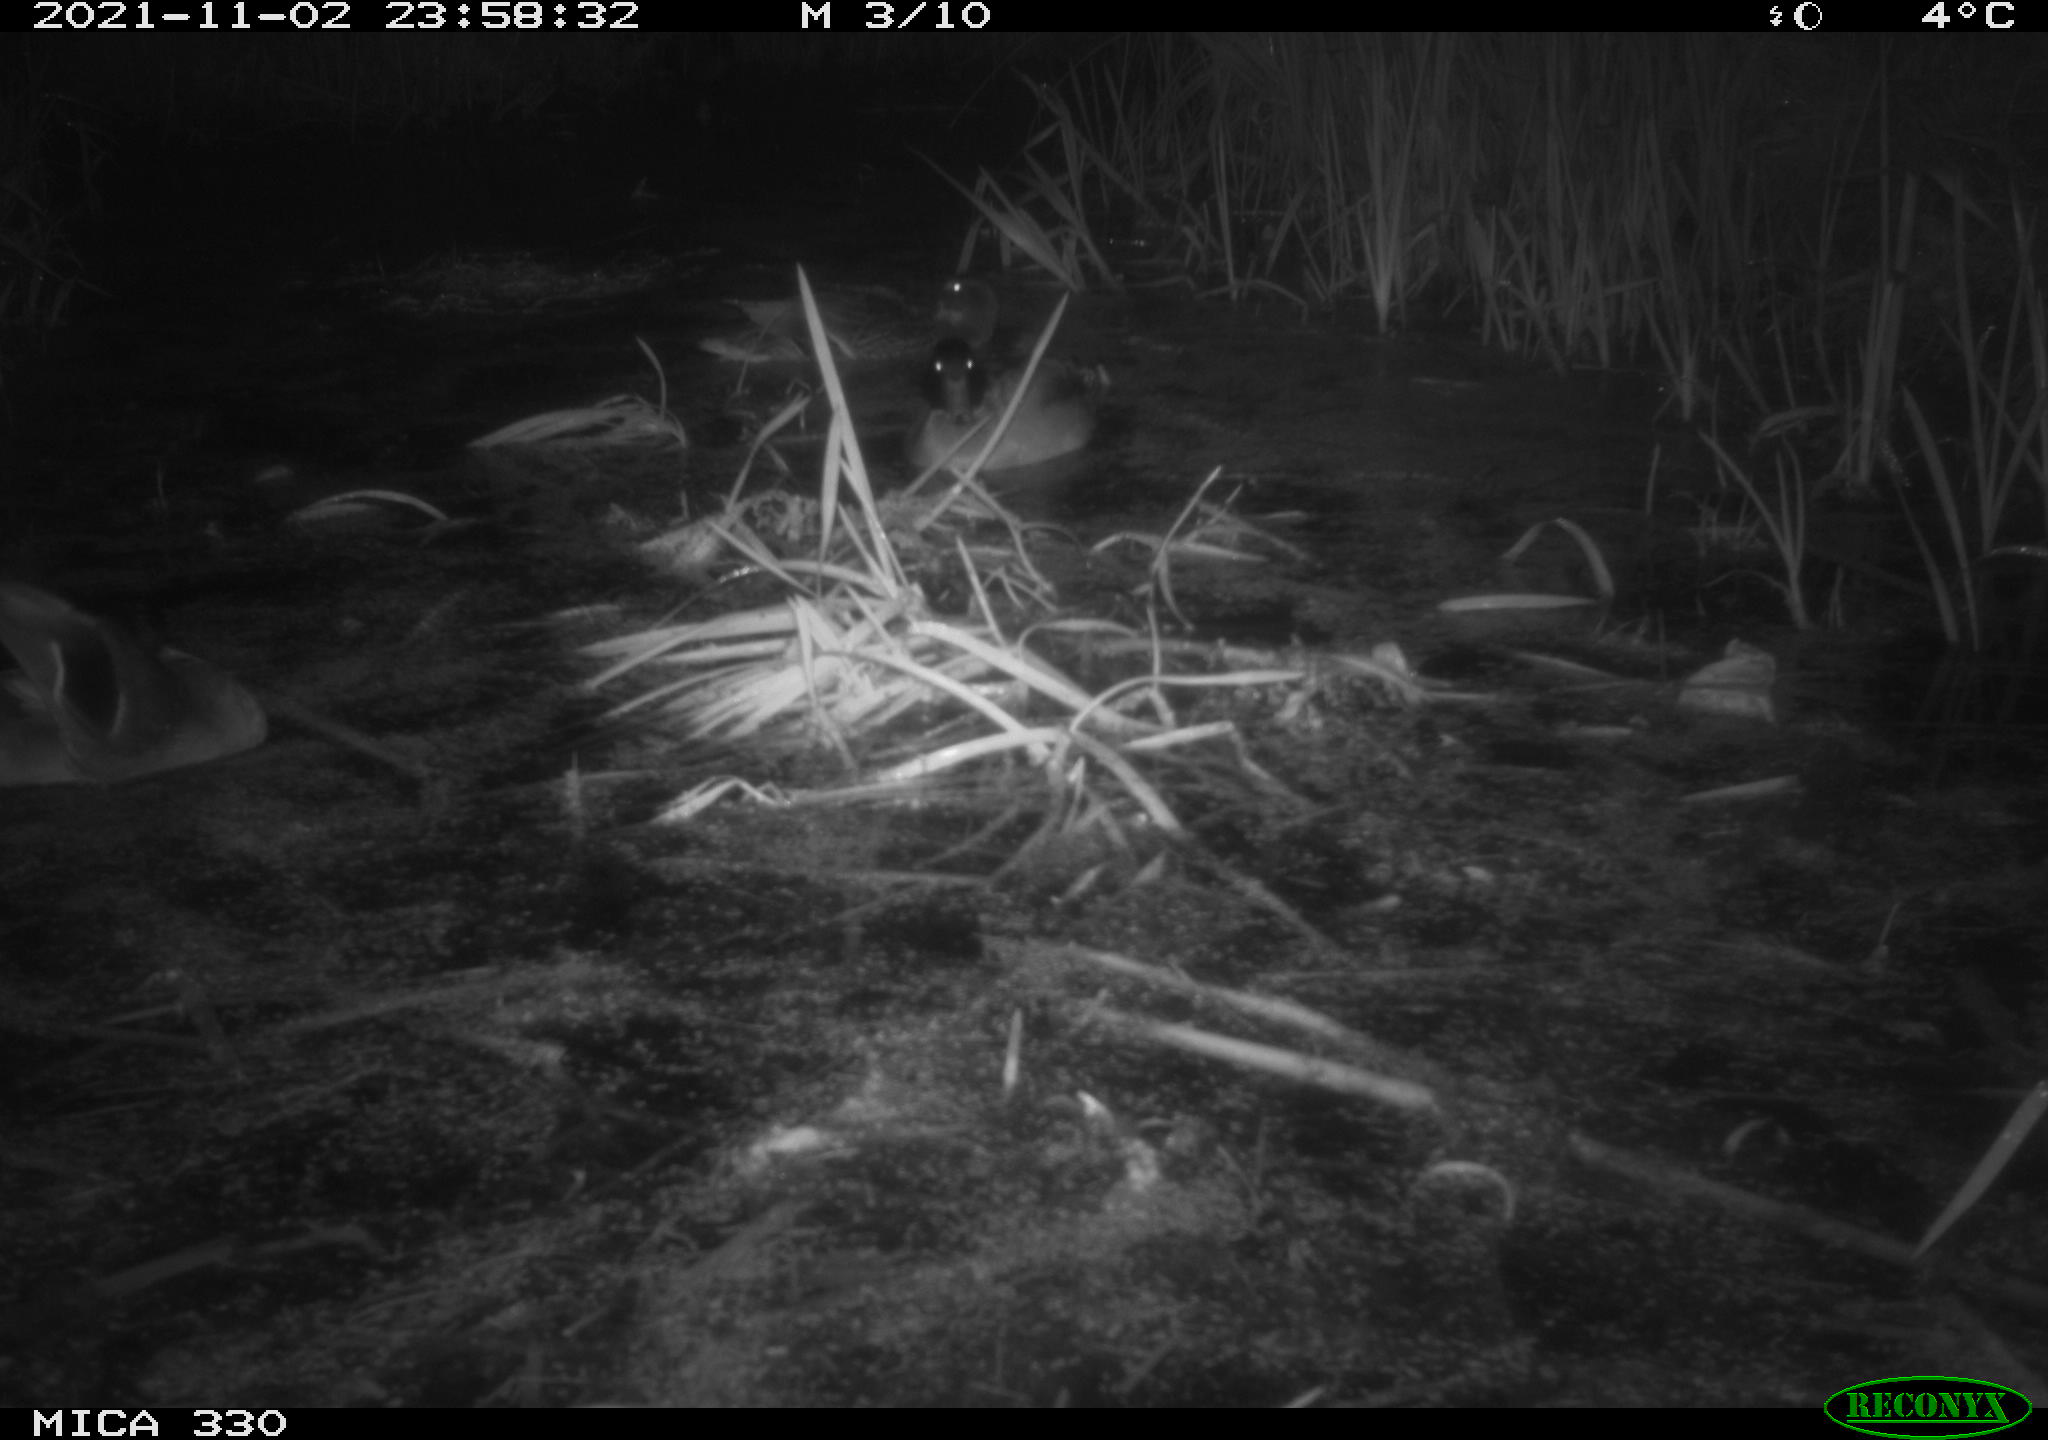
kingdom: Animalia
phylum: Chordata
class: Aves
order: Anseriformes
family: Anatidae
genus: Anas
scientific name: Anas platyrhynchos
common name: Mallard
